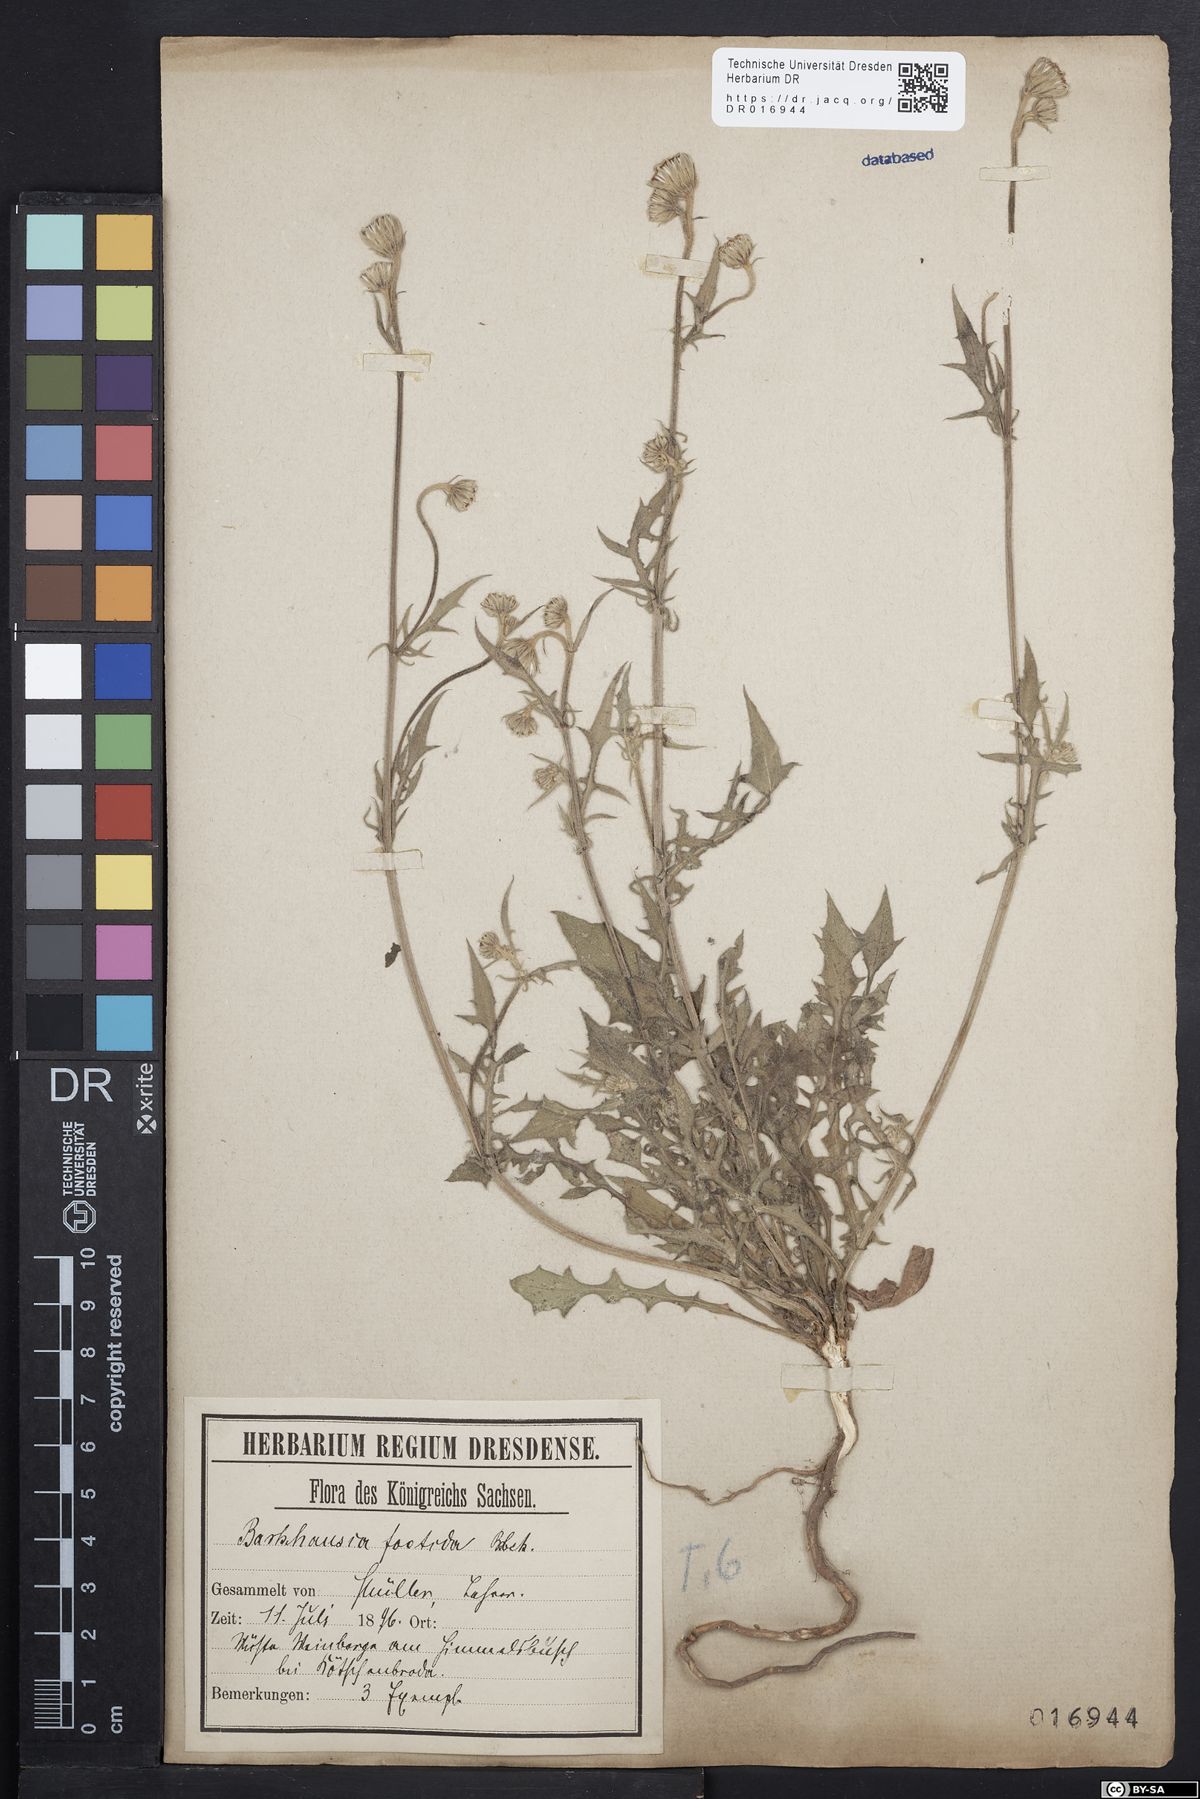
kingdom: Plantae
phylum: Tracheophyta
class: Magnoliopsida
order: Asterales
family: Asteraceae
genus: Crepis
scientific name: Crepis foetida
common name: Stinking hawk's-beard
